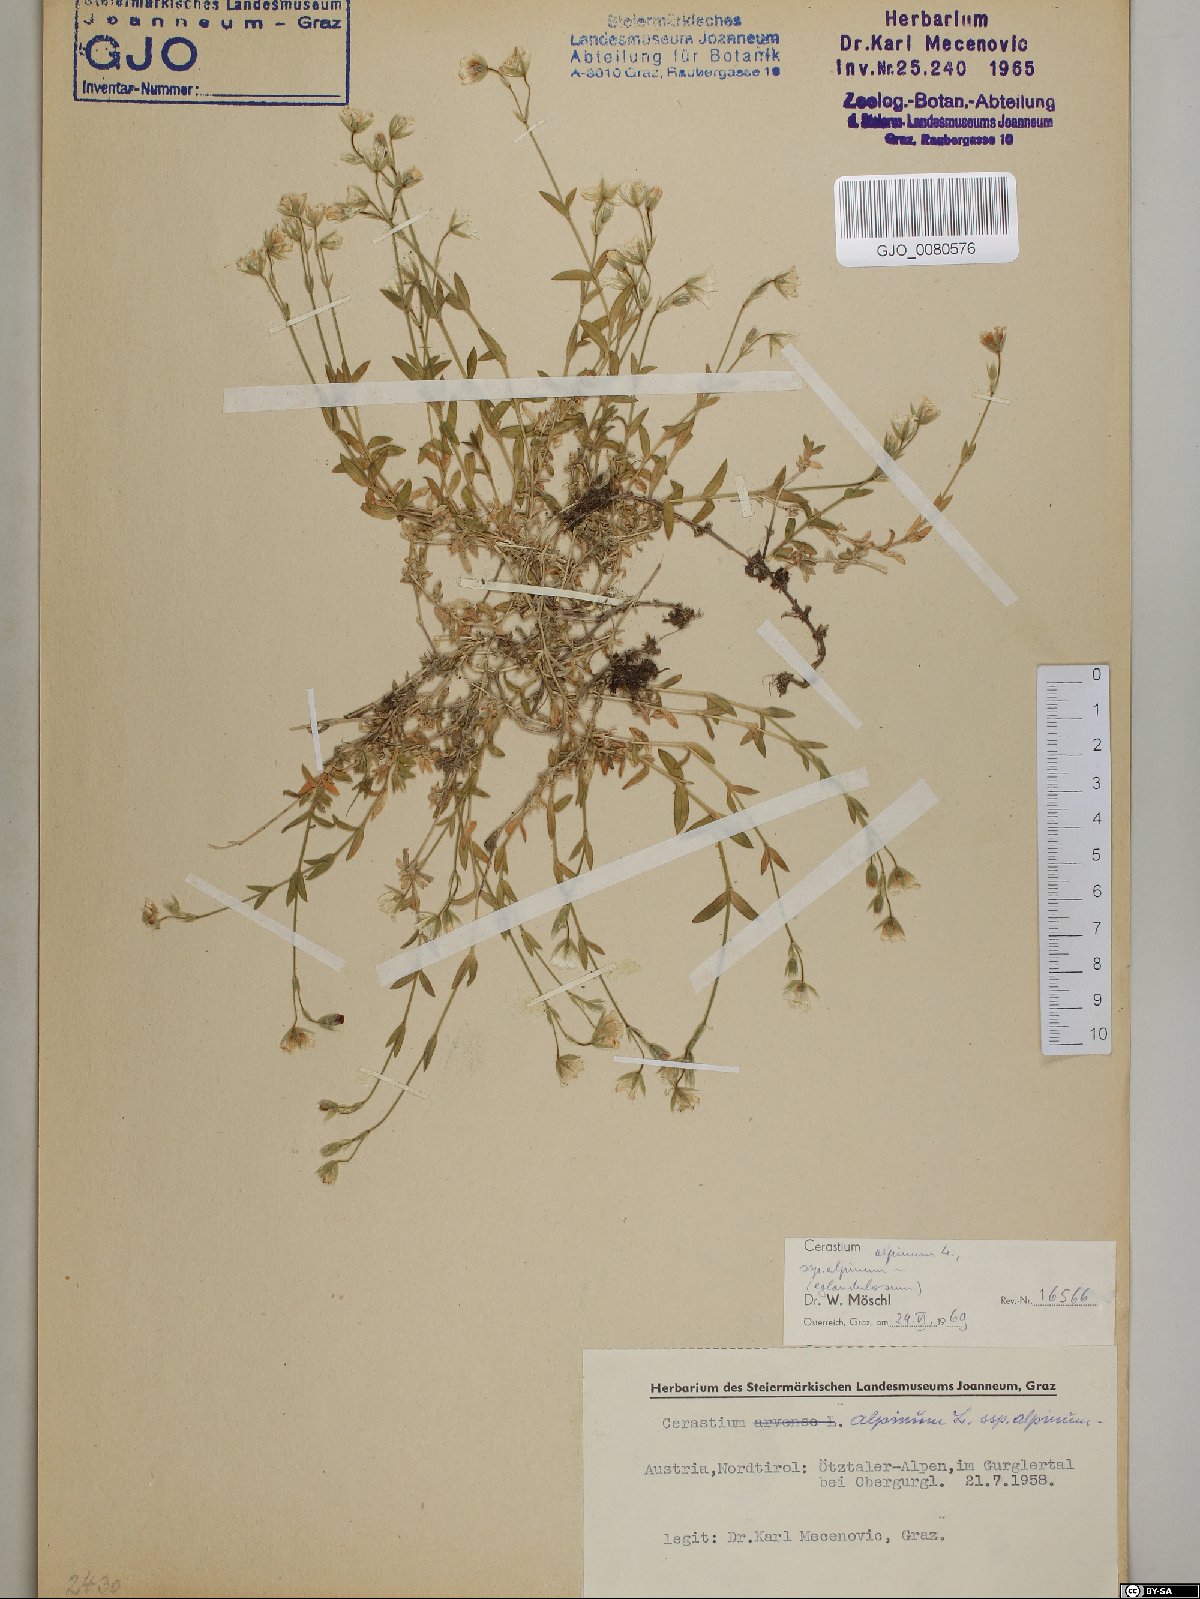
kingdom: Plantae
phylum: Tracheophyta
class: Magnoliopsida
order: Caryophyllales
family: Caryophyllaceae
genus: Cerastium
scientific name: Cerastium alpinum
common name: Alpine mouse-ear
